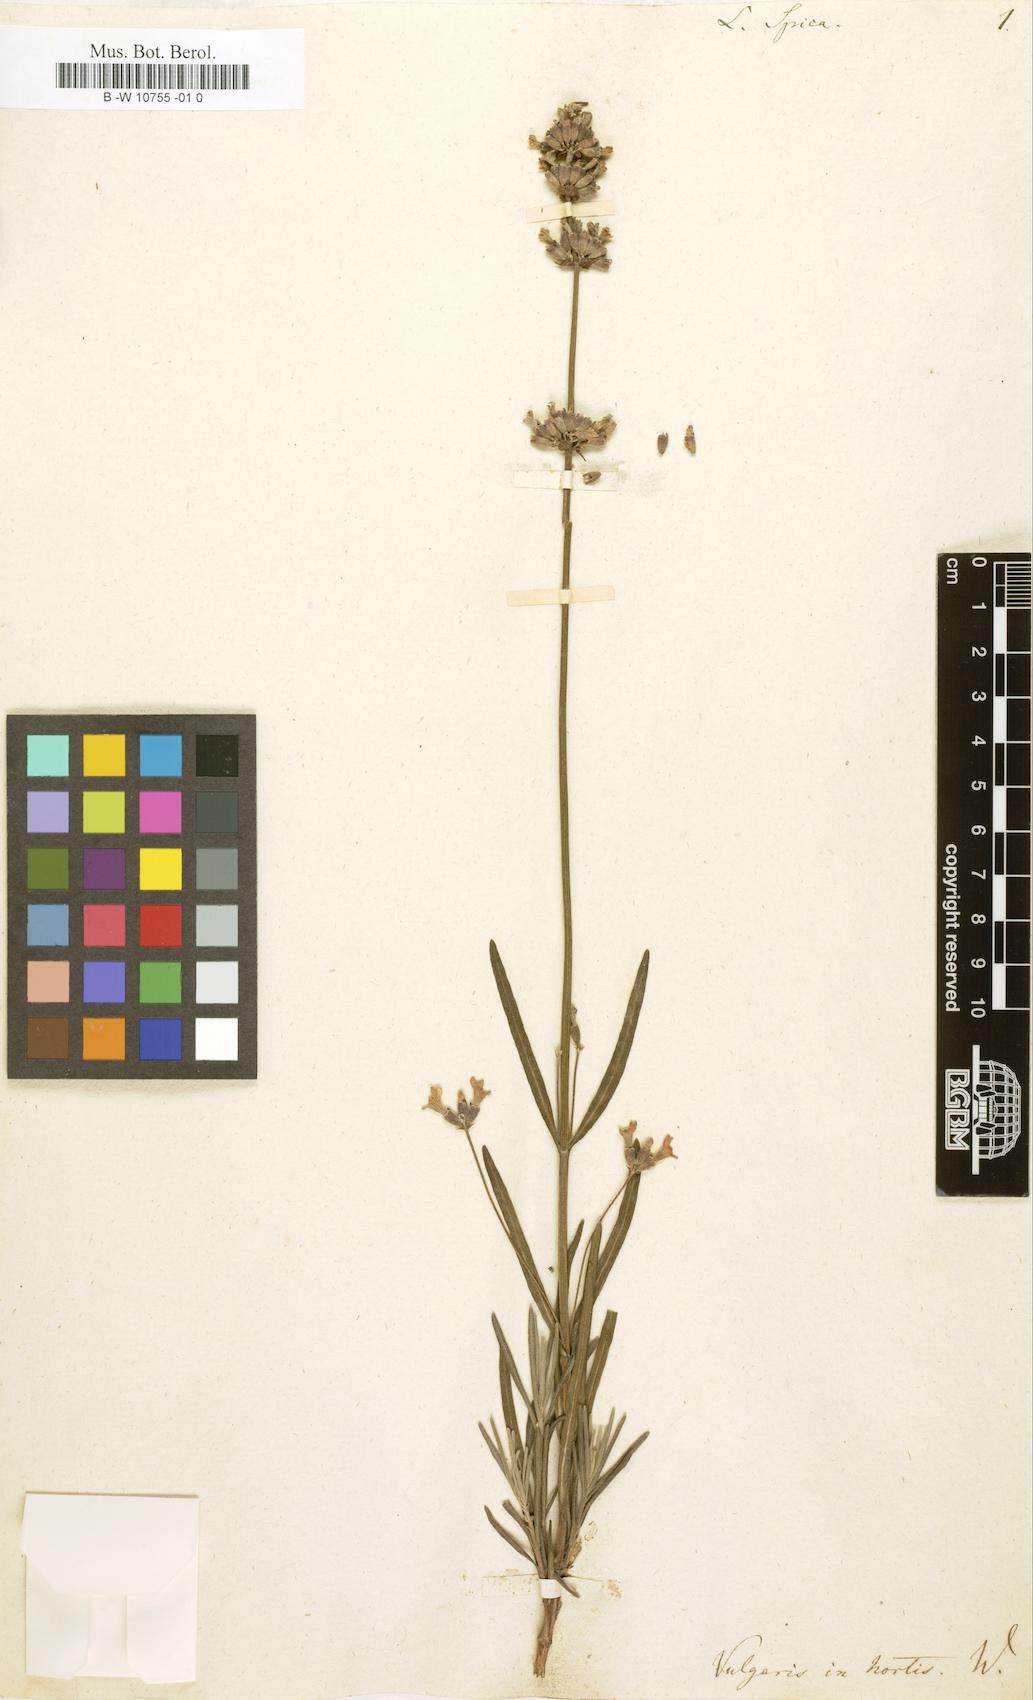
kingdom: Plantae
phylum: Tracheophyta
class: Magnoliopsida
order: Lamiales
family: Lamiaceae
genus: Lavandula
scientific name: Lavandula spica
